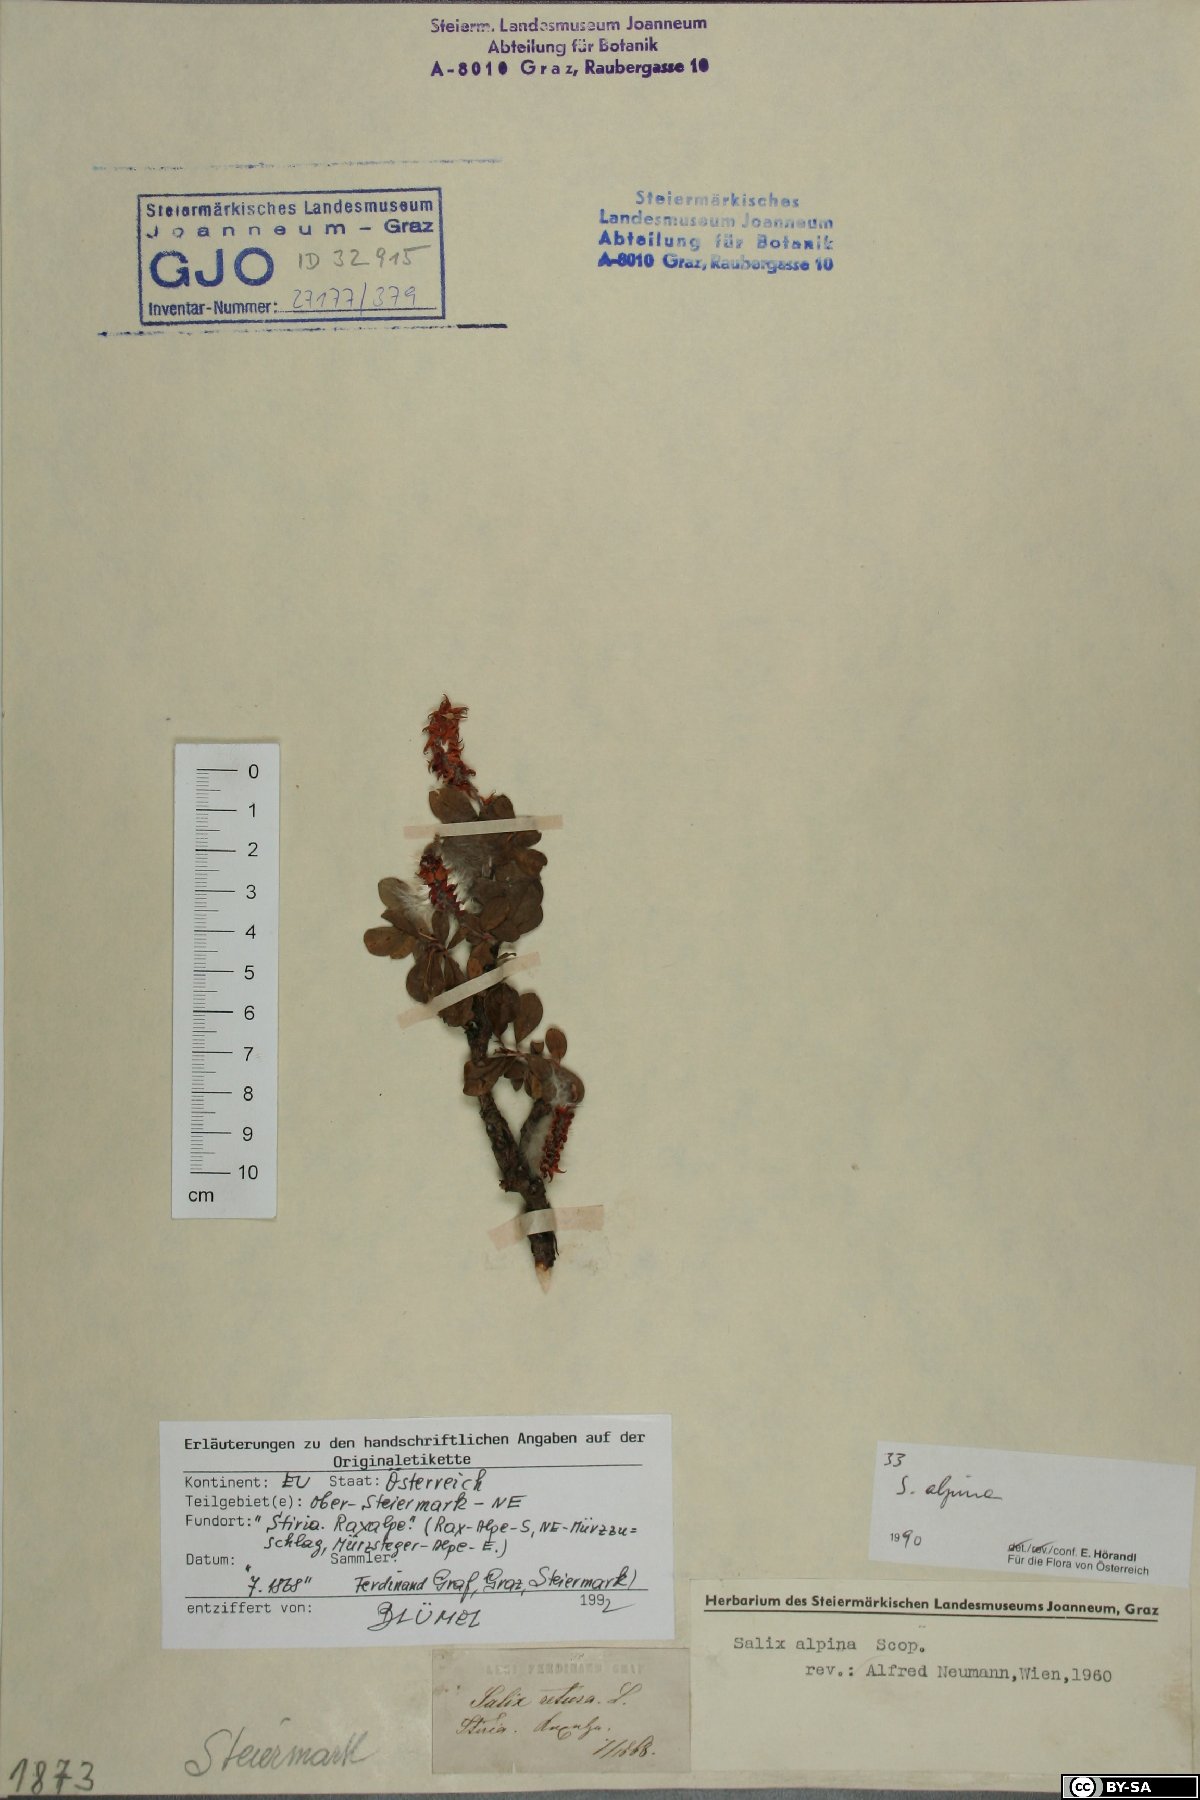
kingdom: Plantae
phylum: Tracheophyta
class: Magnoliopsida
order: Malpighiales
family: Salicaceae
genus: Salix
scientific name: Salix alpina
